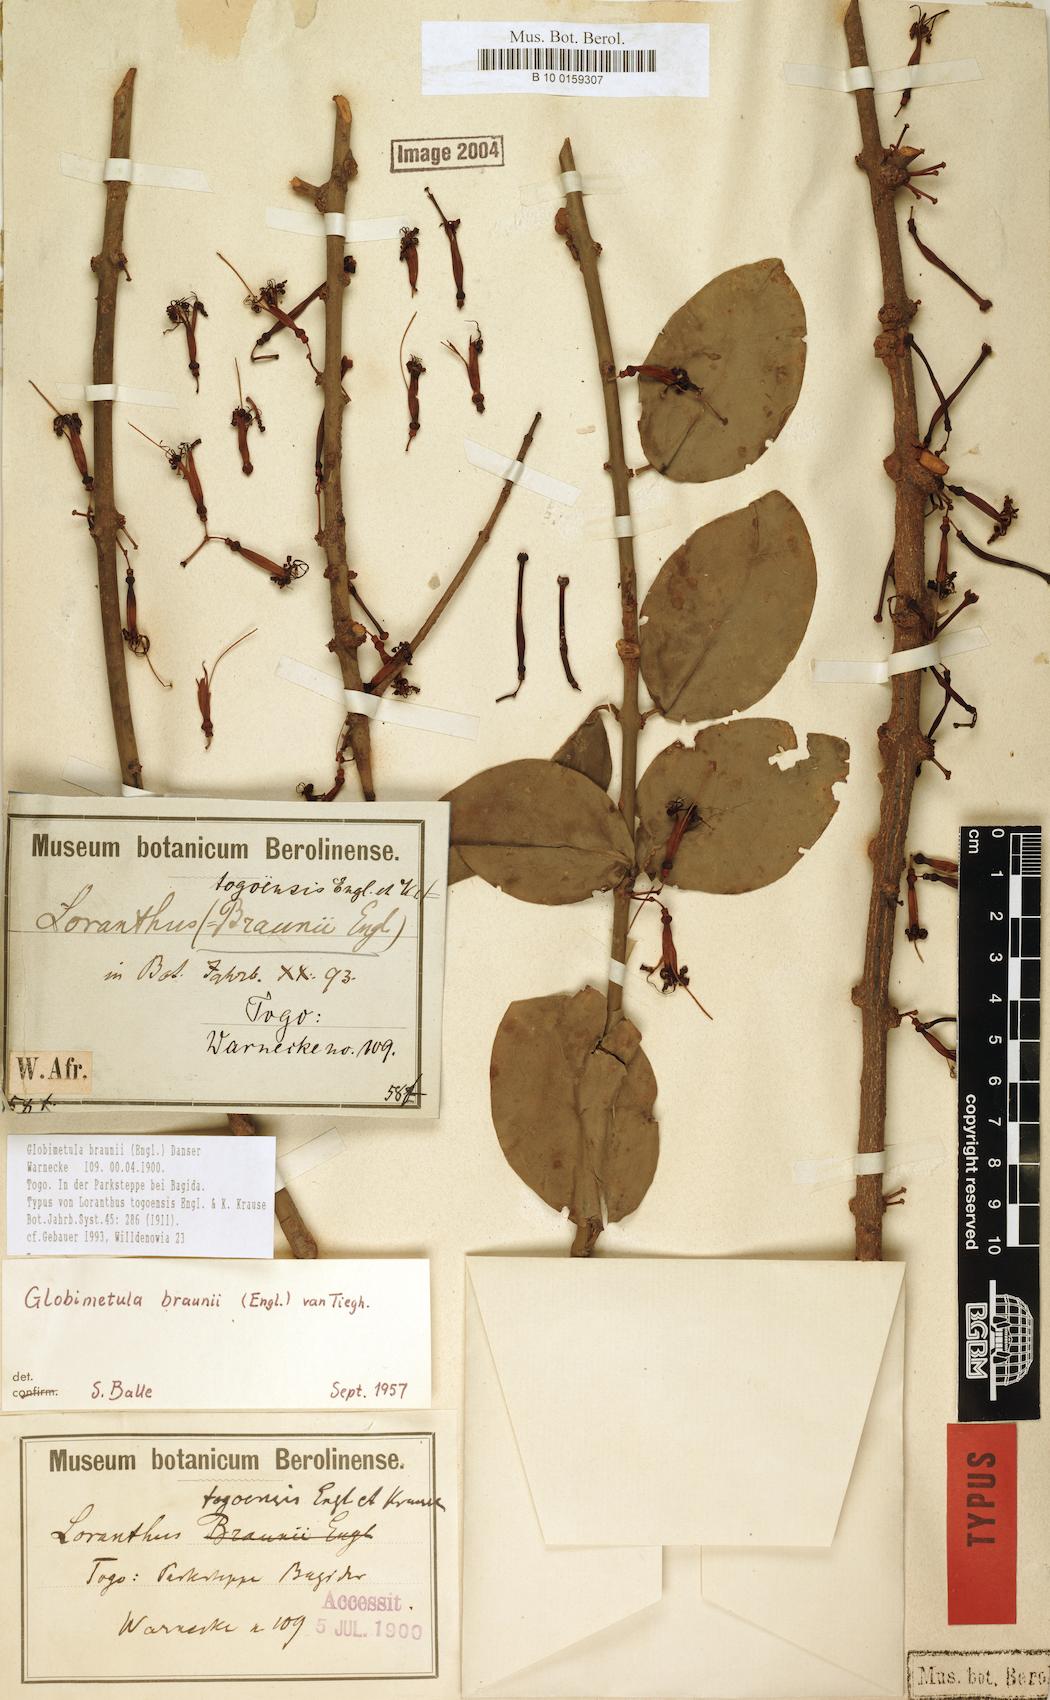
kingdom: Plantae
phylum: Tracheophyta
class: Magnoliopsida
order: Santalales
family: Loranthaceae
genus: Globimetula
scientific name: Globimetula braunii
